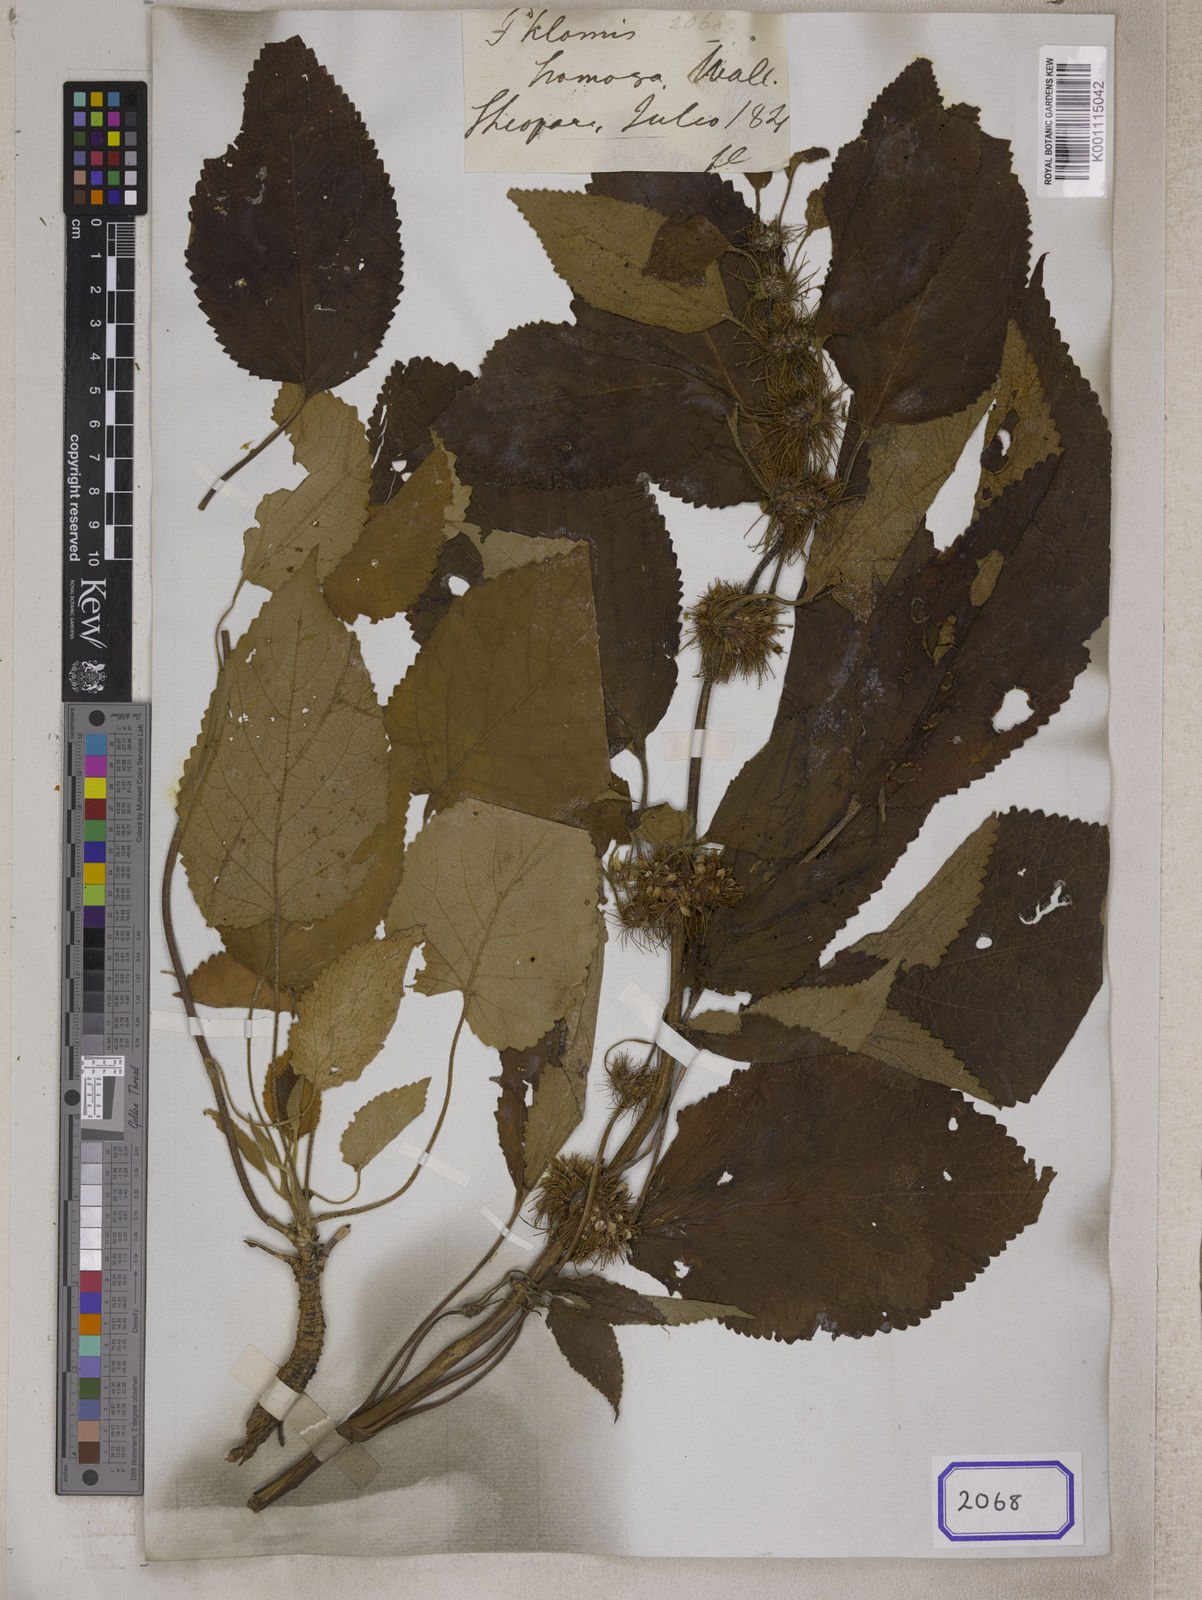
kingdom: Plantae
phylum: Tracheophyta
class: Magnoliopsida
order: Lamiales
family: Lamiaceae
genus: Phlomoides
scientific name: Phlomoides hamosa
